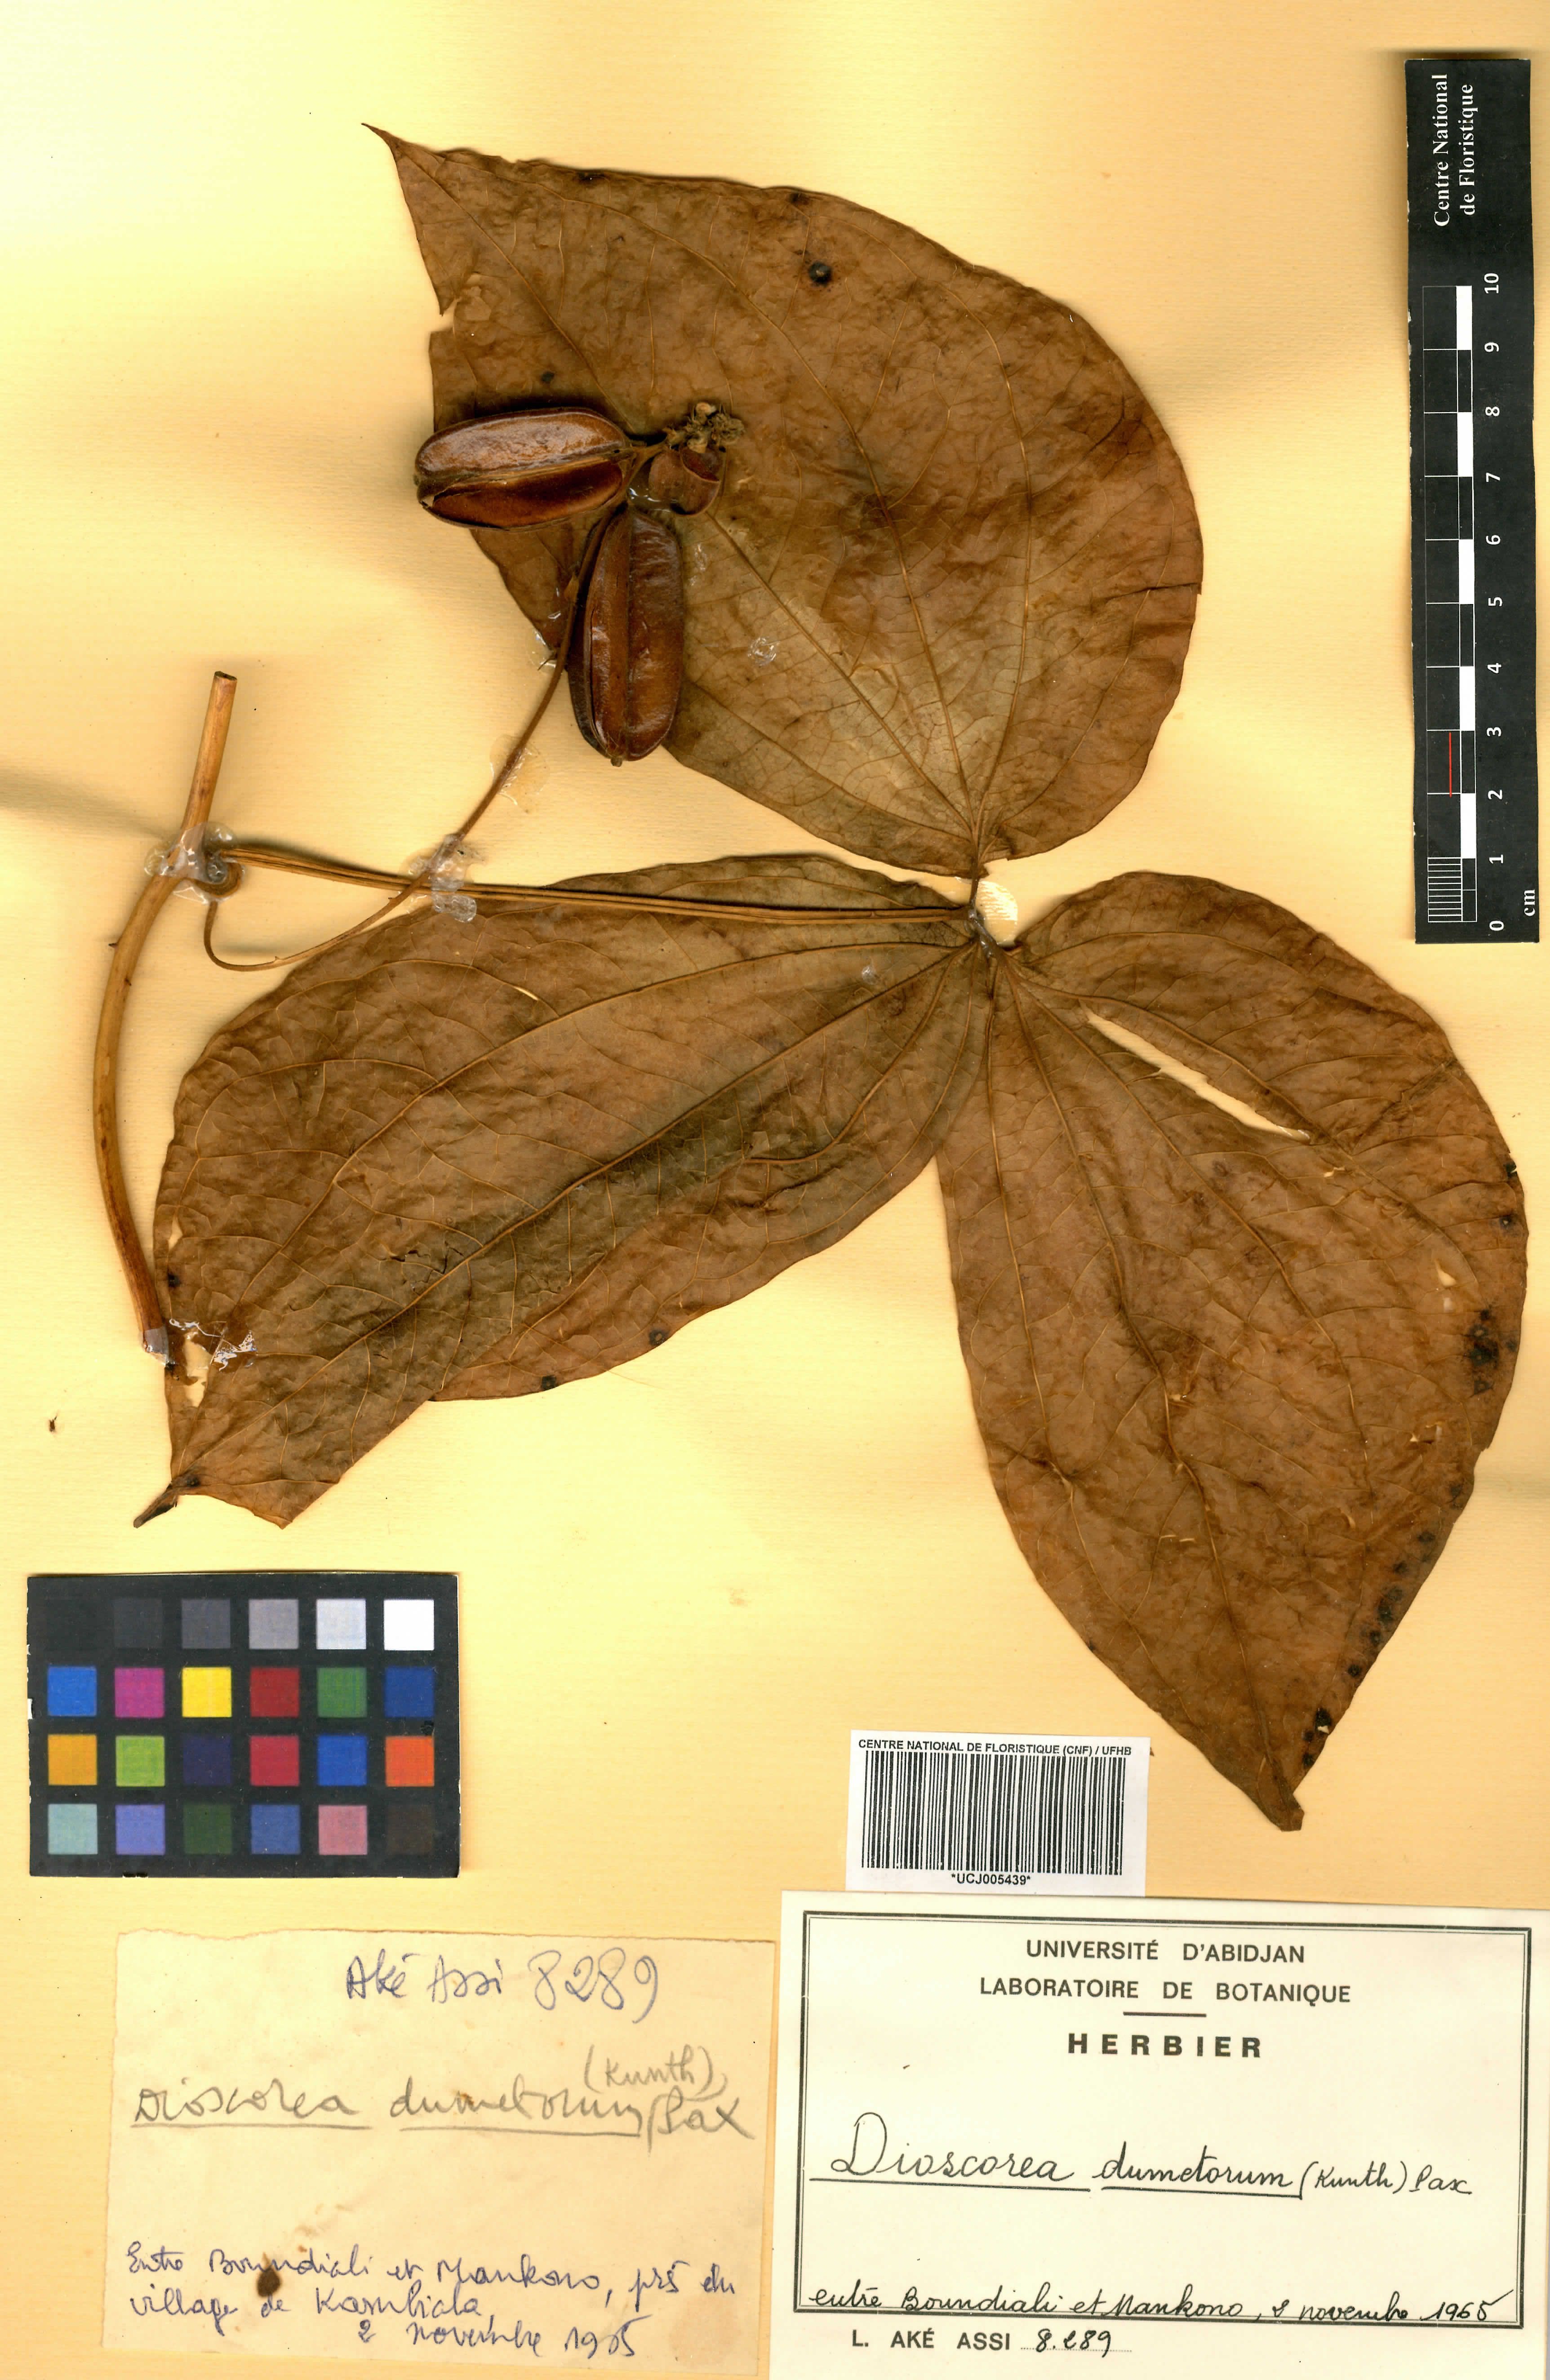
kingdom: Plantae
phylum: Tracheophyta
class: Liliopsida
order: Dioscoreales
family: Dioscoreaceae
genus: Dioscorea
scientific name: Dioscorea dumetorum
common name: African bitter yam
